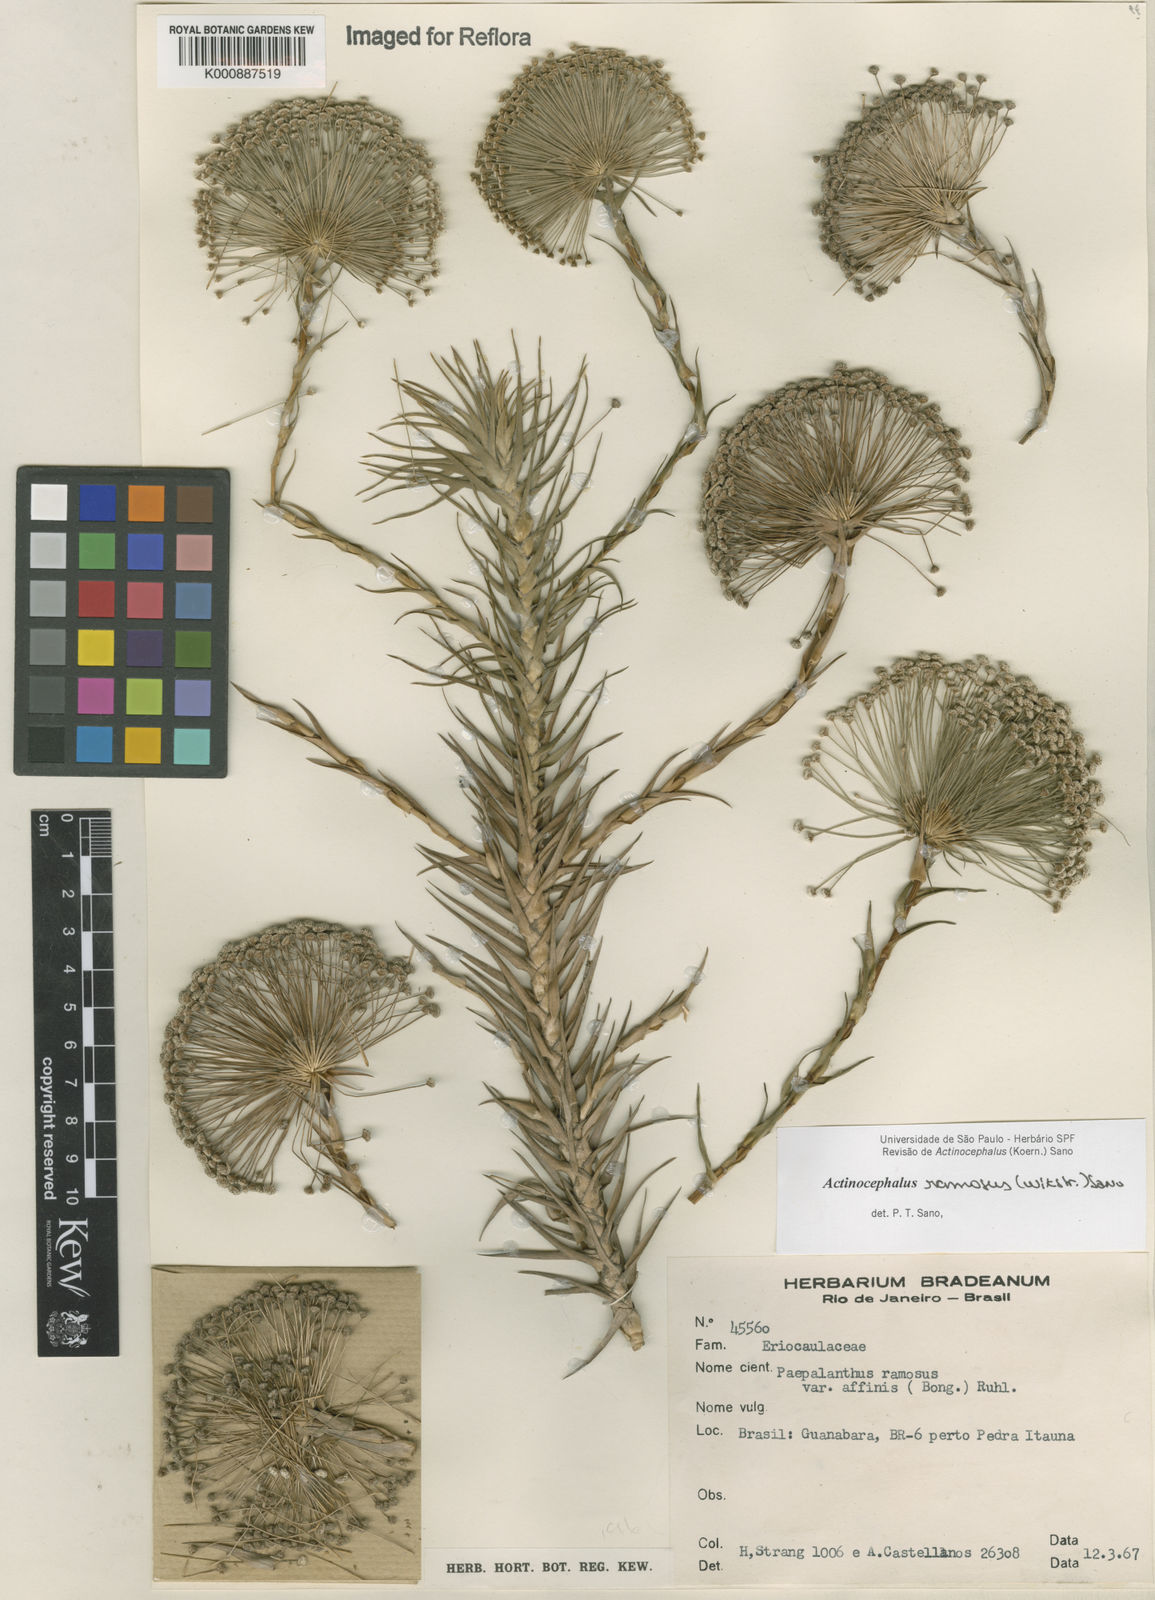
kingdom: Plantae
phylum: Tracheophyta
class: Liliopsida
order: Poales
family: Eriocaulaceae
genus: Paepalanthus
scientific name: Paepalanthus ramosus
